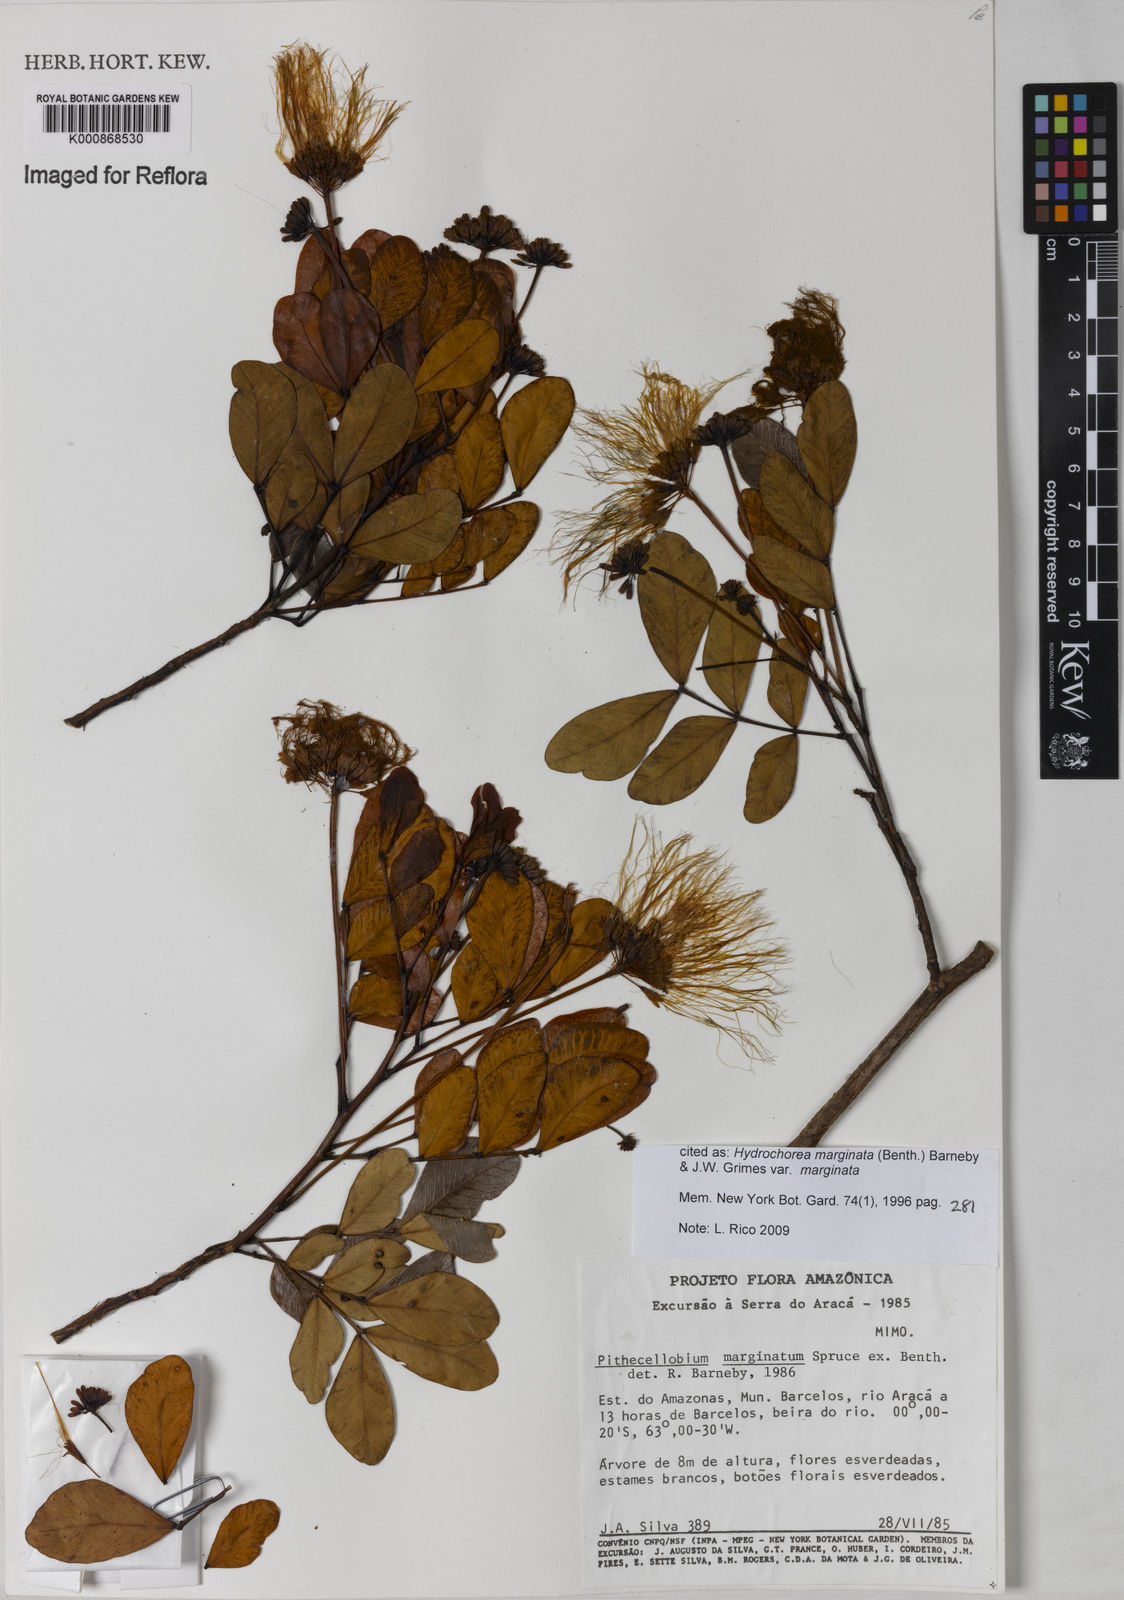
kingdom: Plantae
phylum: Tracheophyta
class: Magnoliopsida
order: Fabales
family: Fabaceae
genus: Hydrochorea
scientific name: Hydrochorea marginata
